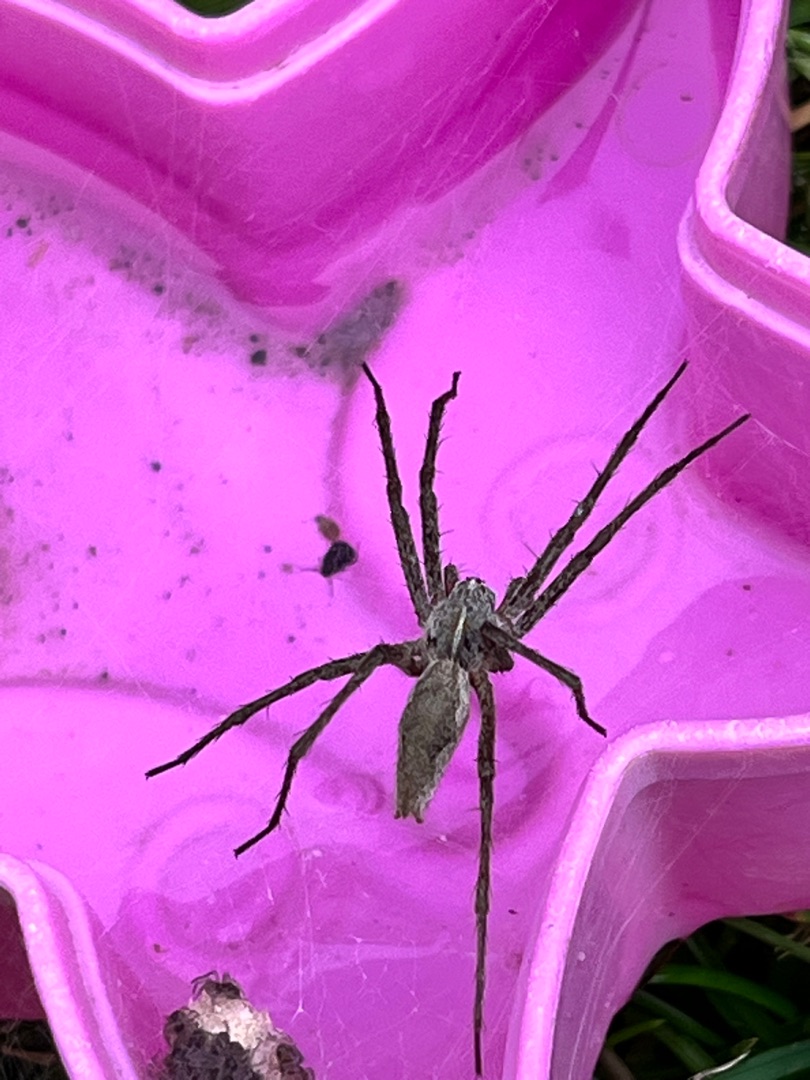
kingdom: Animalia
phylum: Arthropoda
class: Arachnida
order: Araneae
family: Pisauridae
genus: Pisaura
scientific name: Pisaura mirabilis
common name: Almindelig rovedderkop
